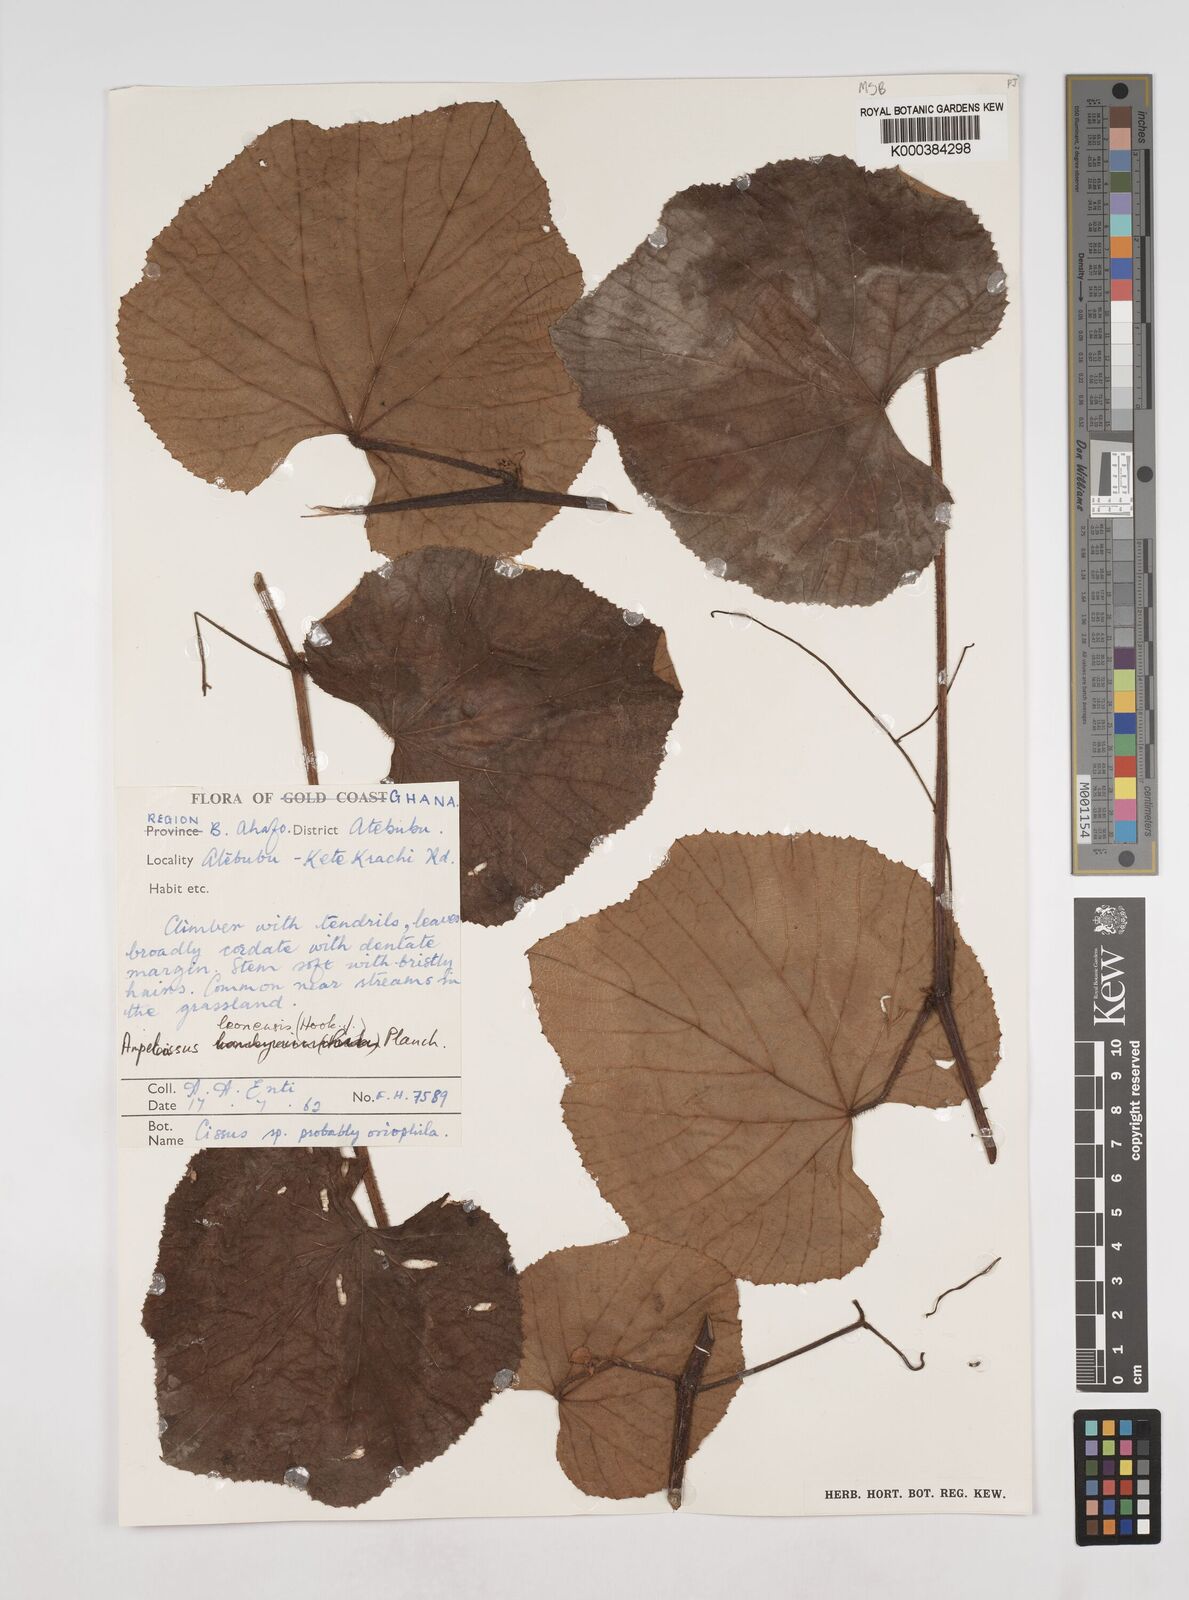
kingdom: Plantae
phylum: Tracheophyta
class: Magnoliopsida
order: Vitales
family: Vitaceae
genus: Ampelocissus
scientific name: Ampelocissus leonensis
